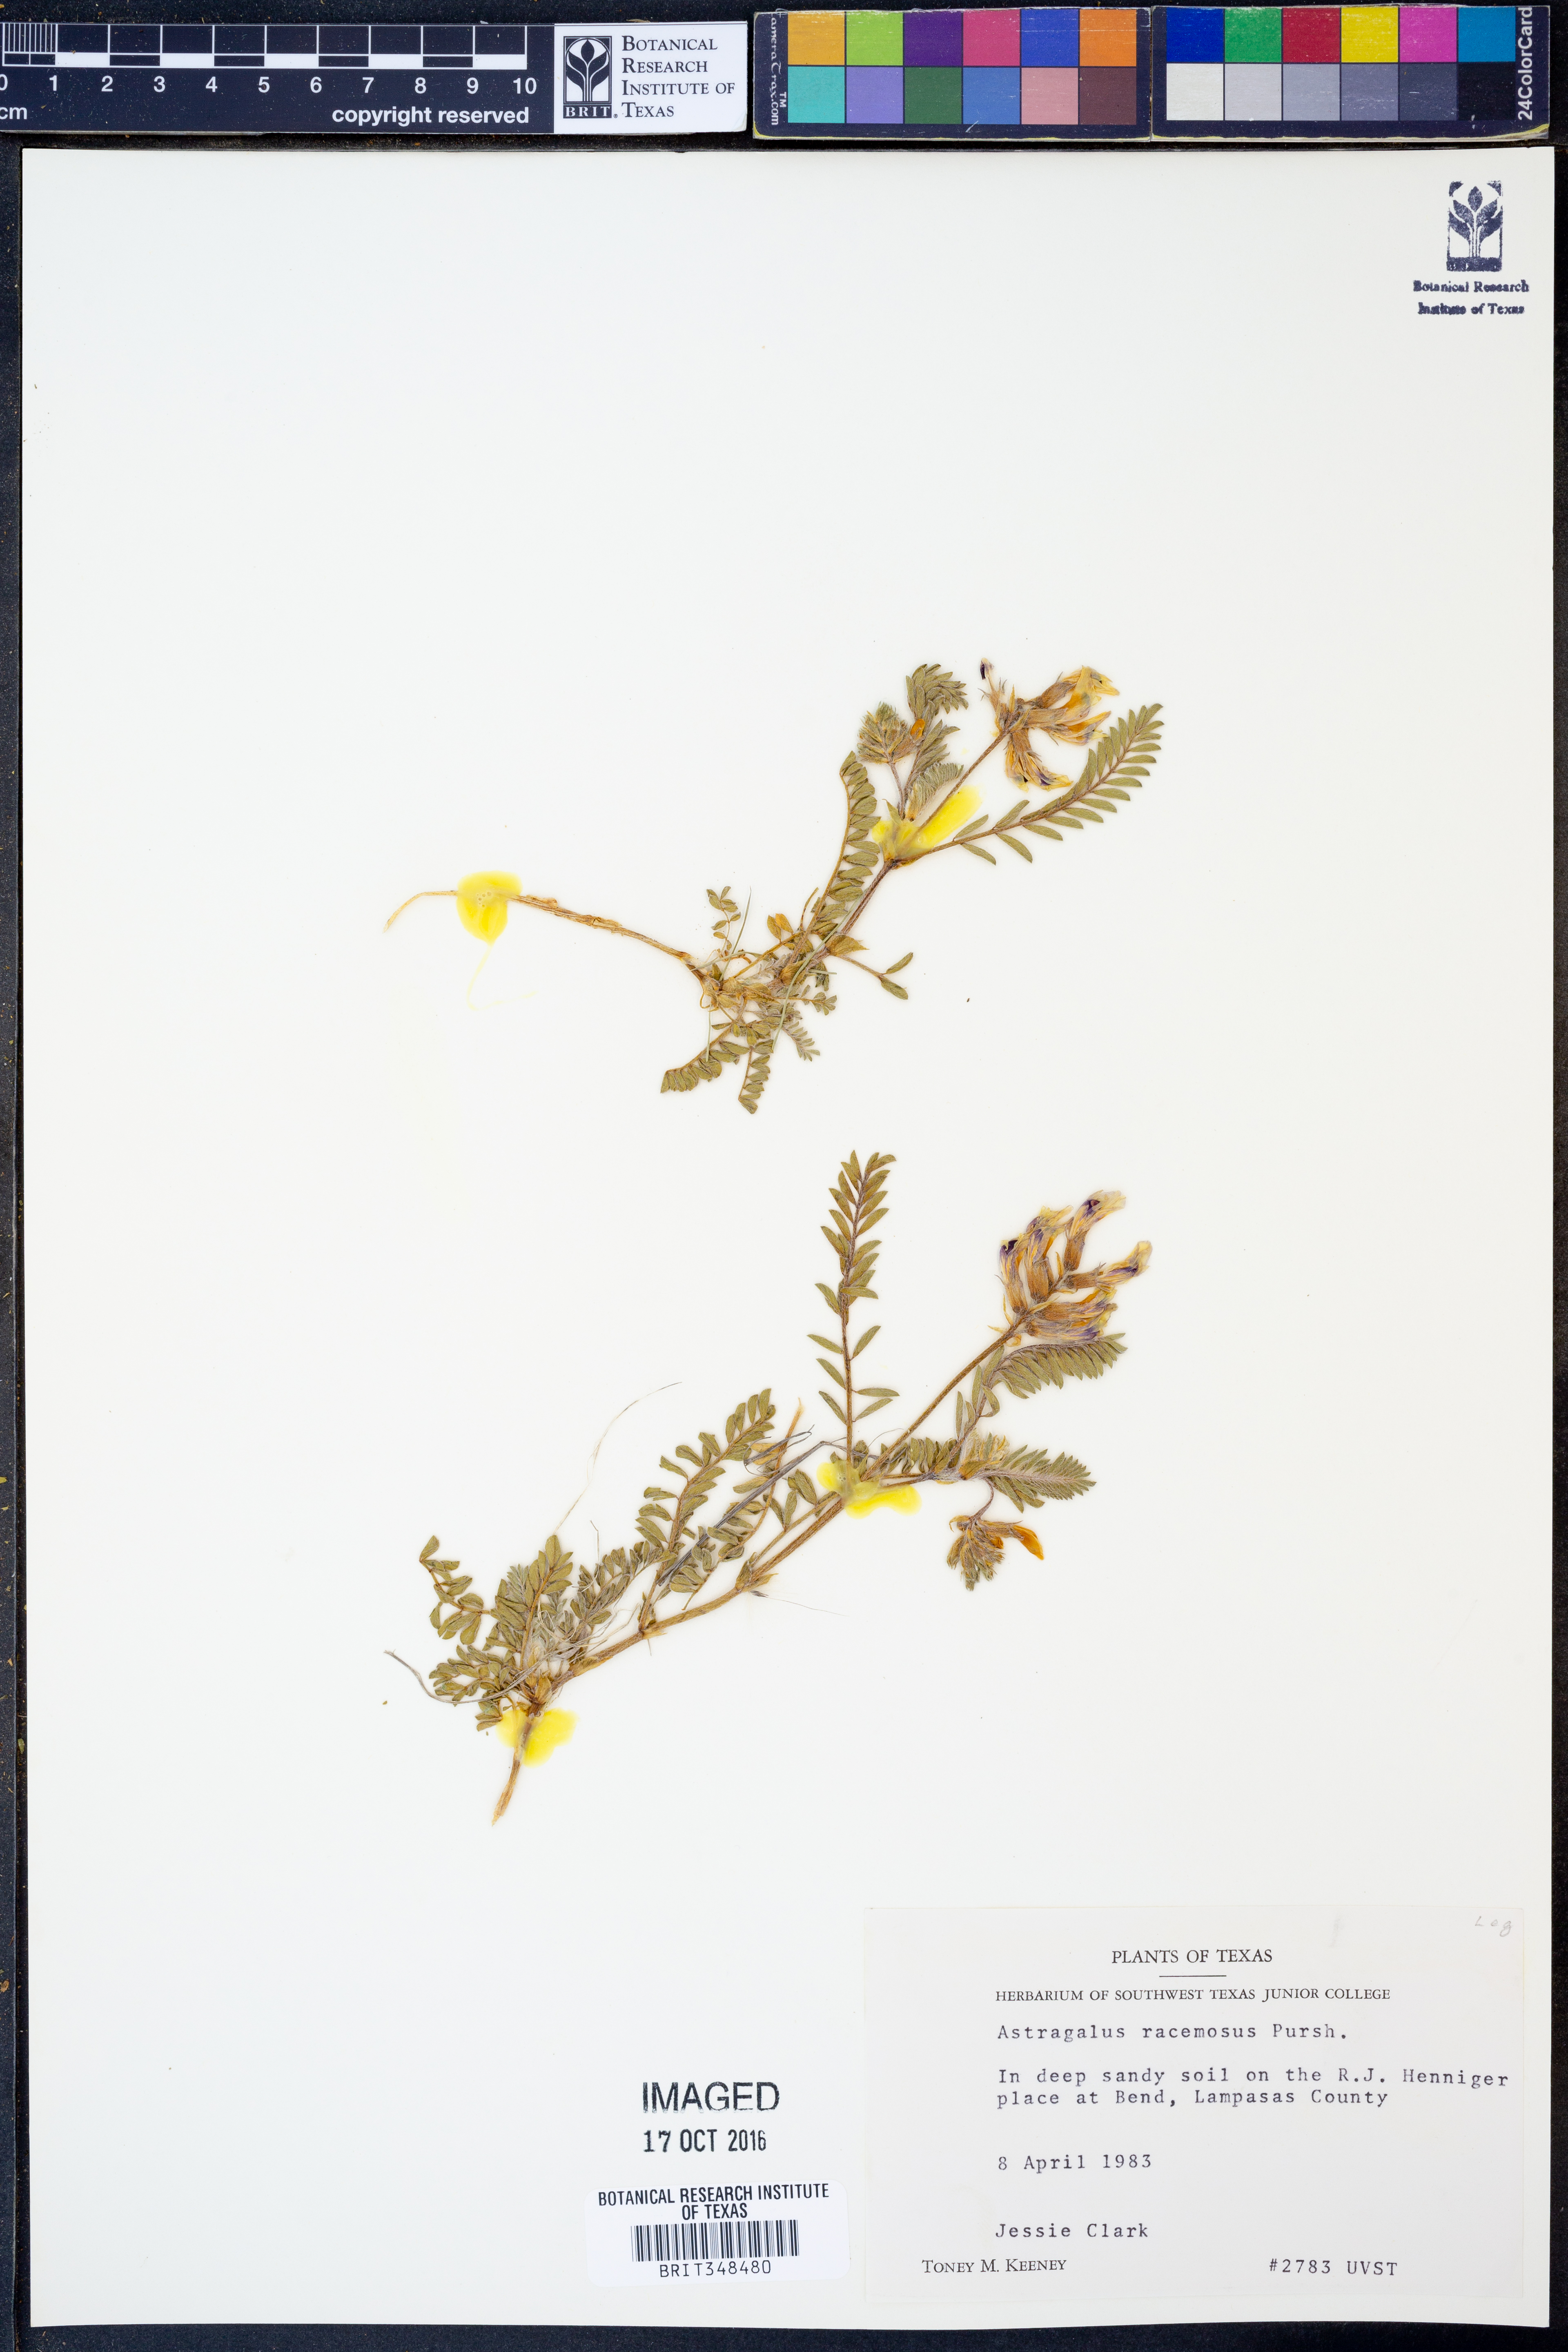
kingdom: Plantae
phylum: Tracheophyta
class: Magnoliopsida
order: Fabales
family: Fabaceae
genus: Astragalus
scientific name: Astragalus racemosus
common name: Alkali milk-vetch
